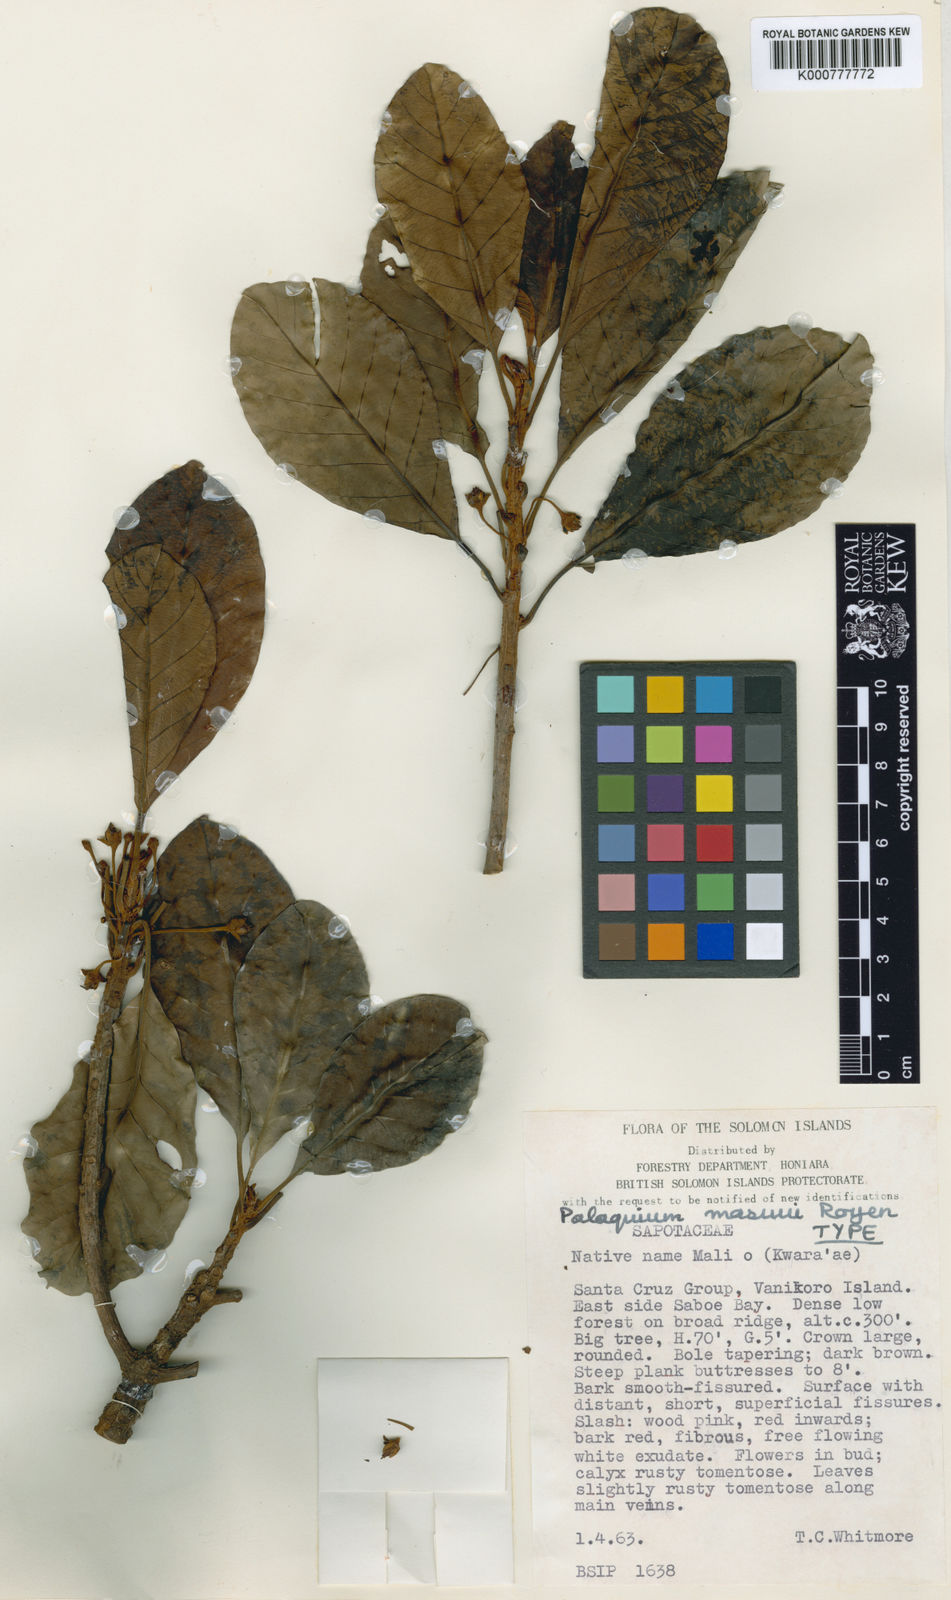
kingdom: Plantae
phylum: Tracheophyta
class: Magnoliopsida
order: Ericales
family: Sapotaceae
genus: Palaquium
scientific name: Palaquium masuui
